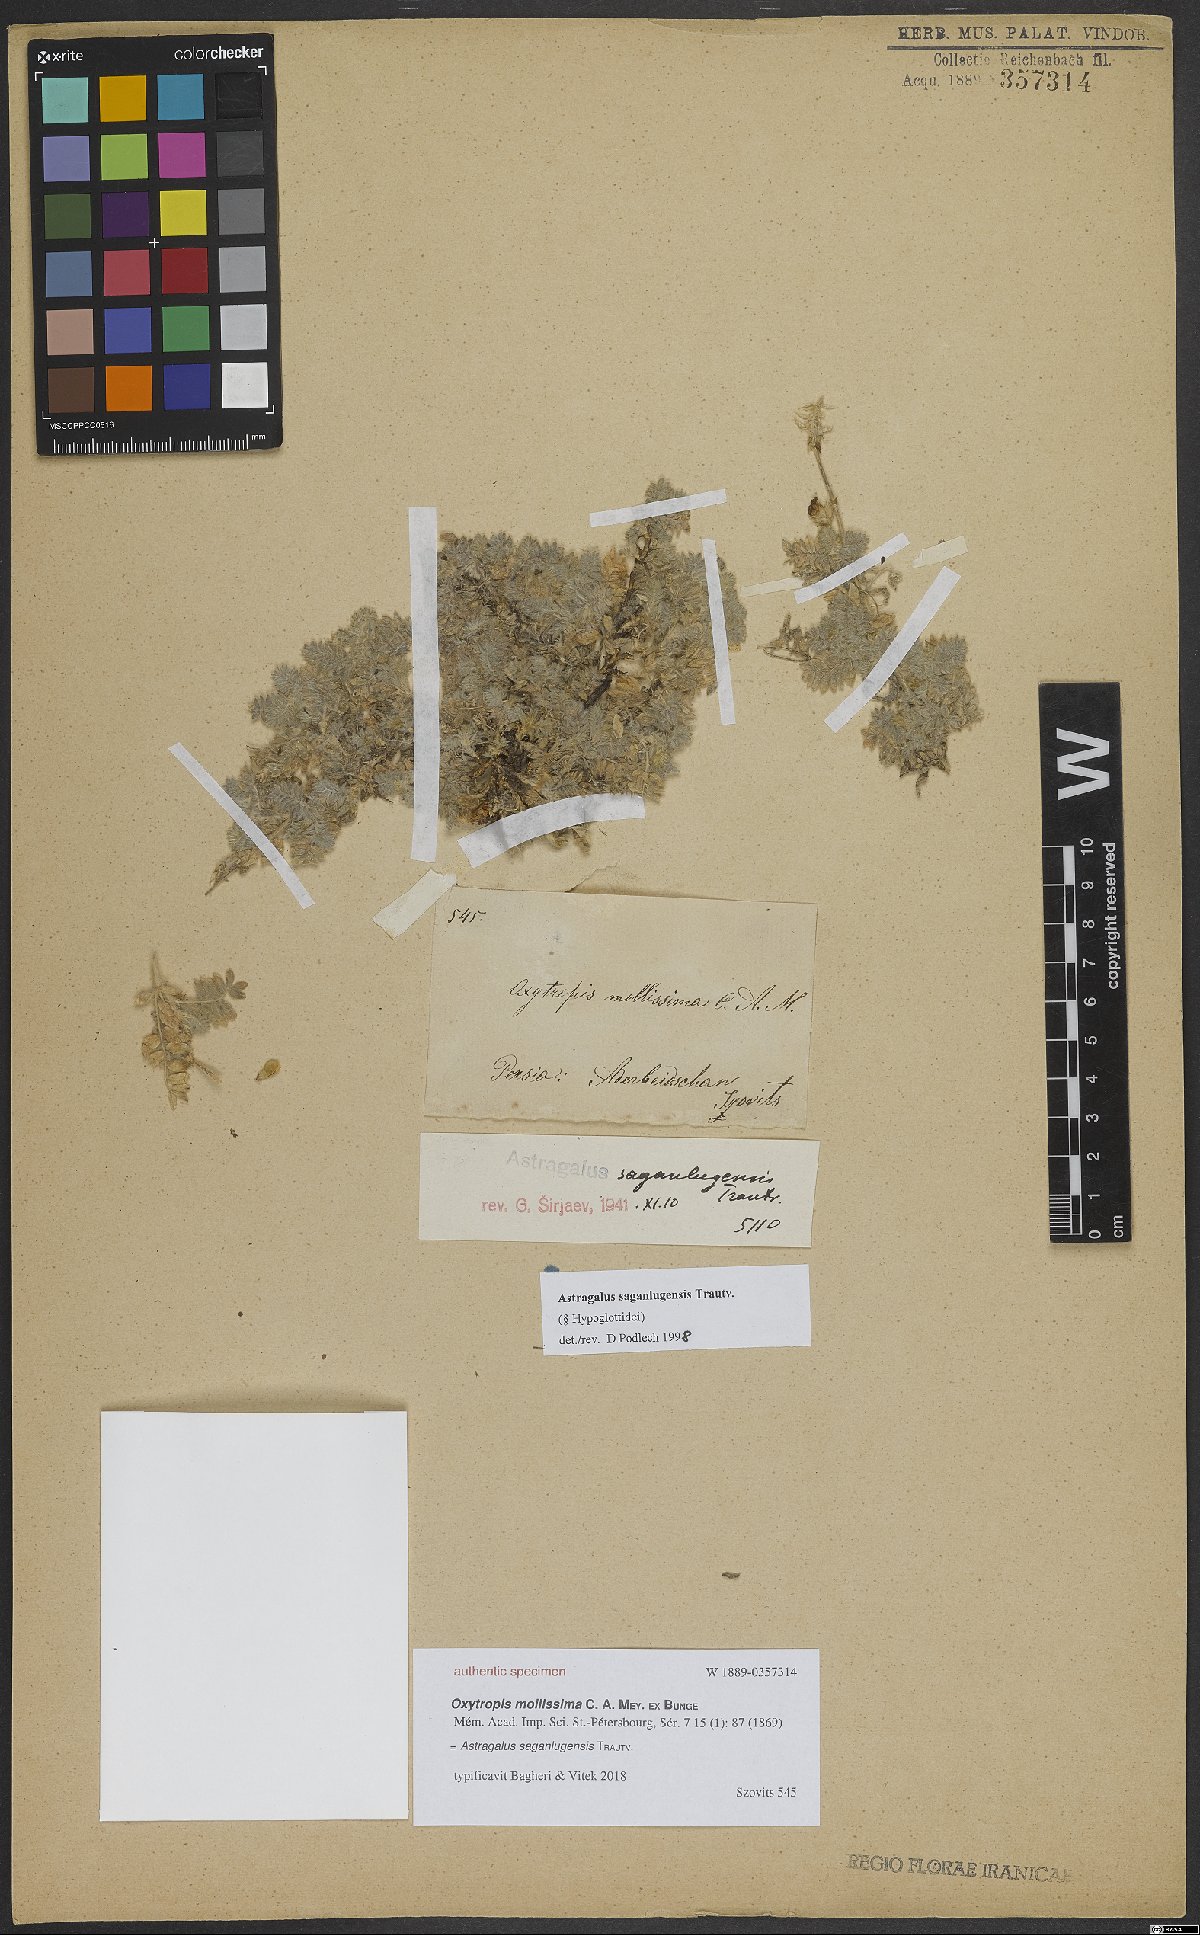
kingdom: Plantae
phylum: Tracheophyta
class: Magnoliopsida
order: Fabales
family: Fabaceae
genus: Astragalus
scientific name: Astragalus saganlugensis
